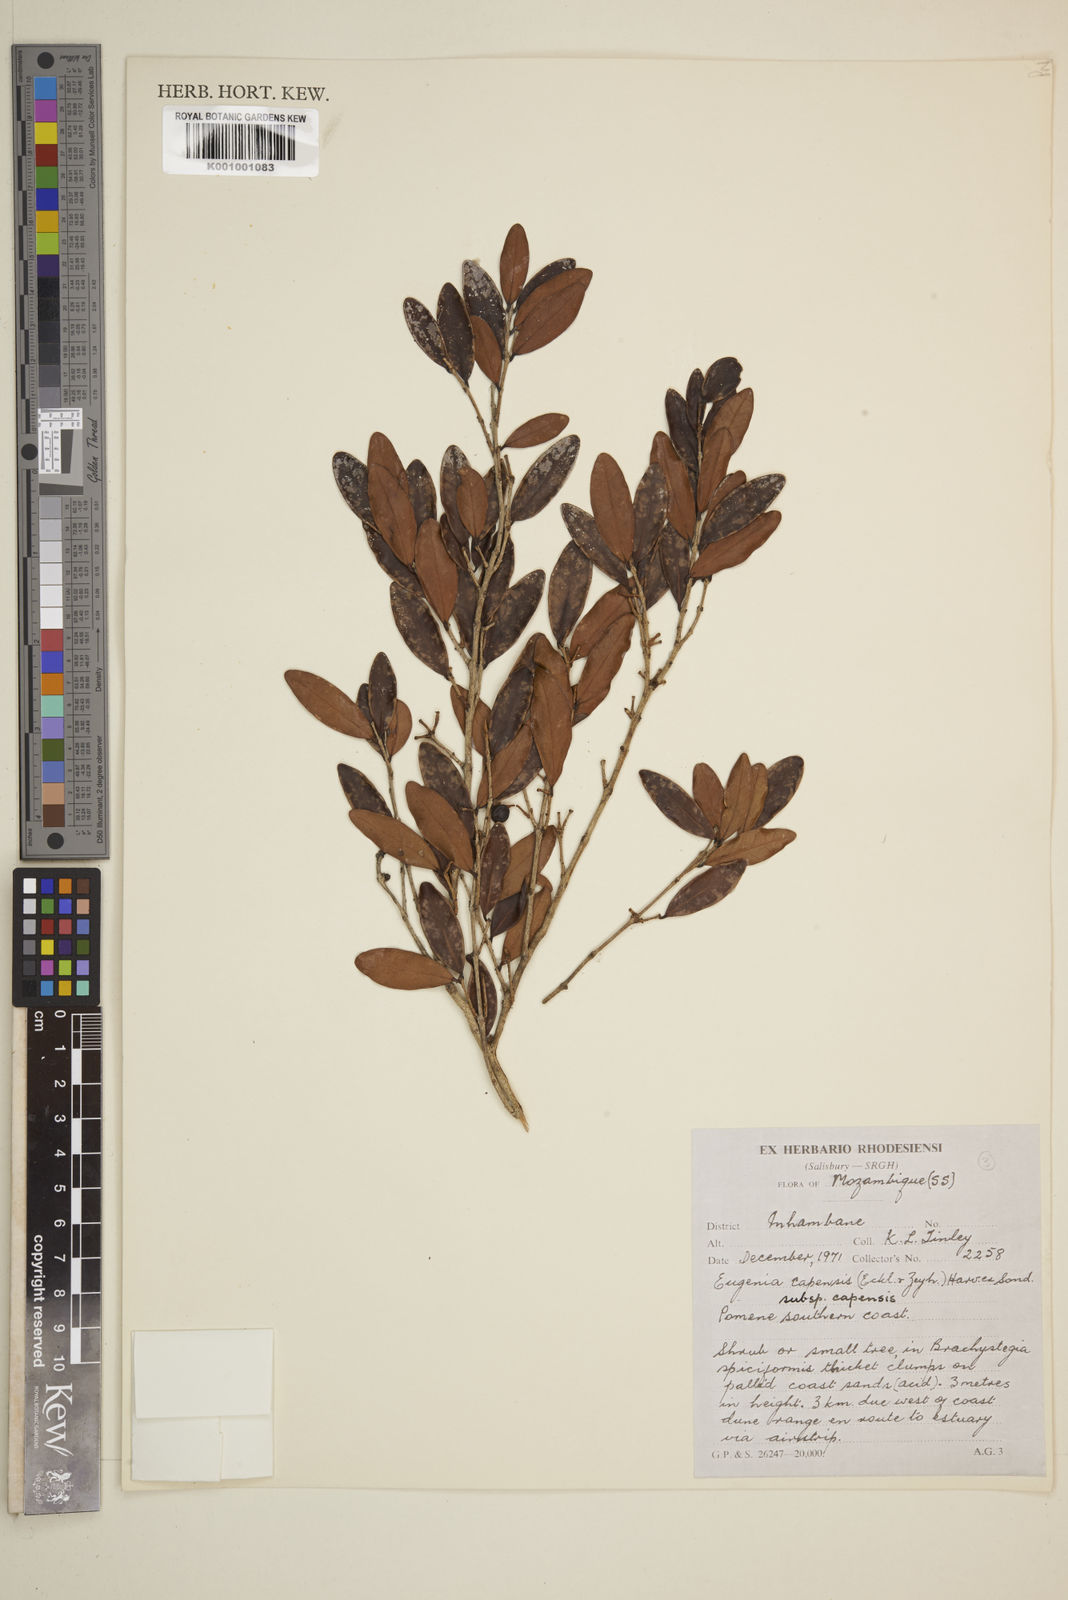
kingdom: Plantae
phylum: Tracheophyta
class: Magnoliopsida
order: Myrtales
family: Myrtaceae
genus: Eugenia
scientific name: Eugenia capensis
